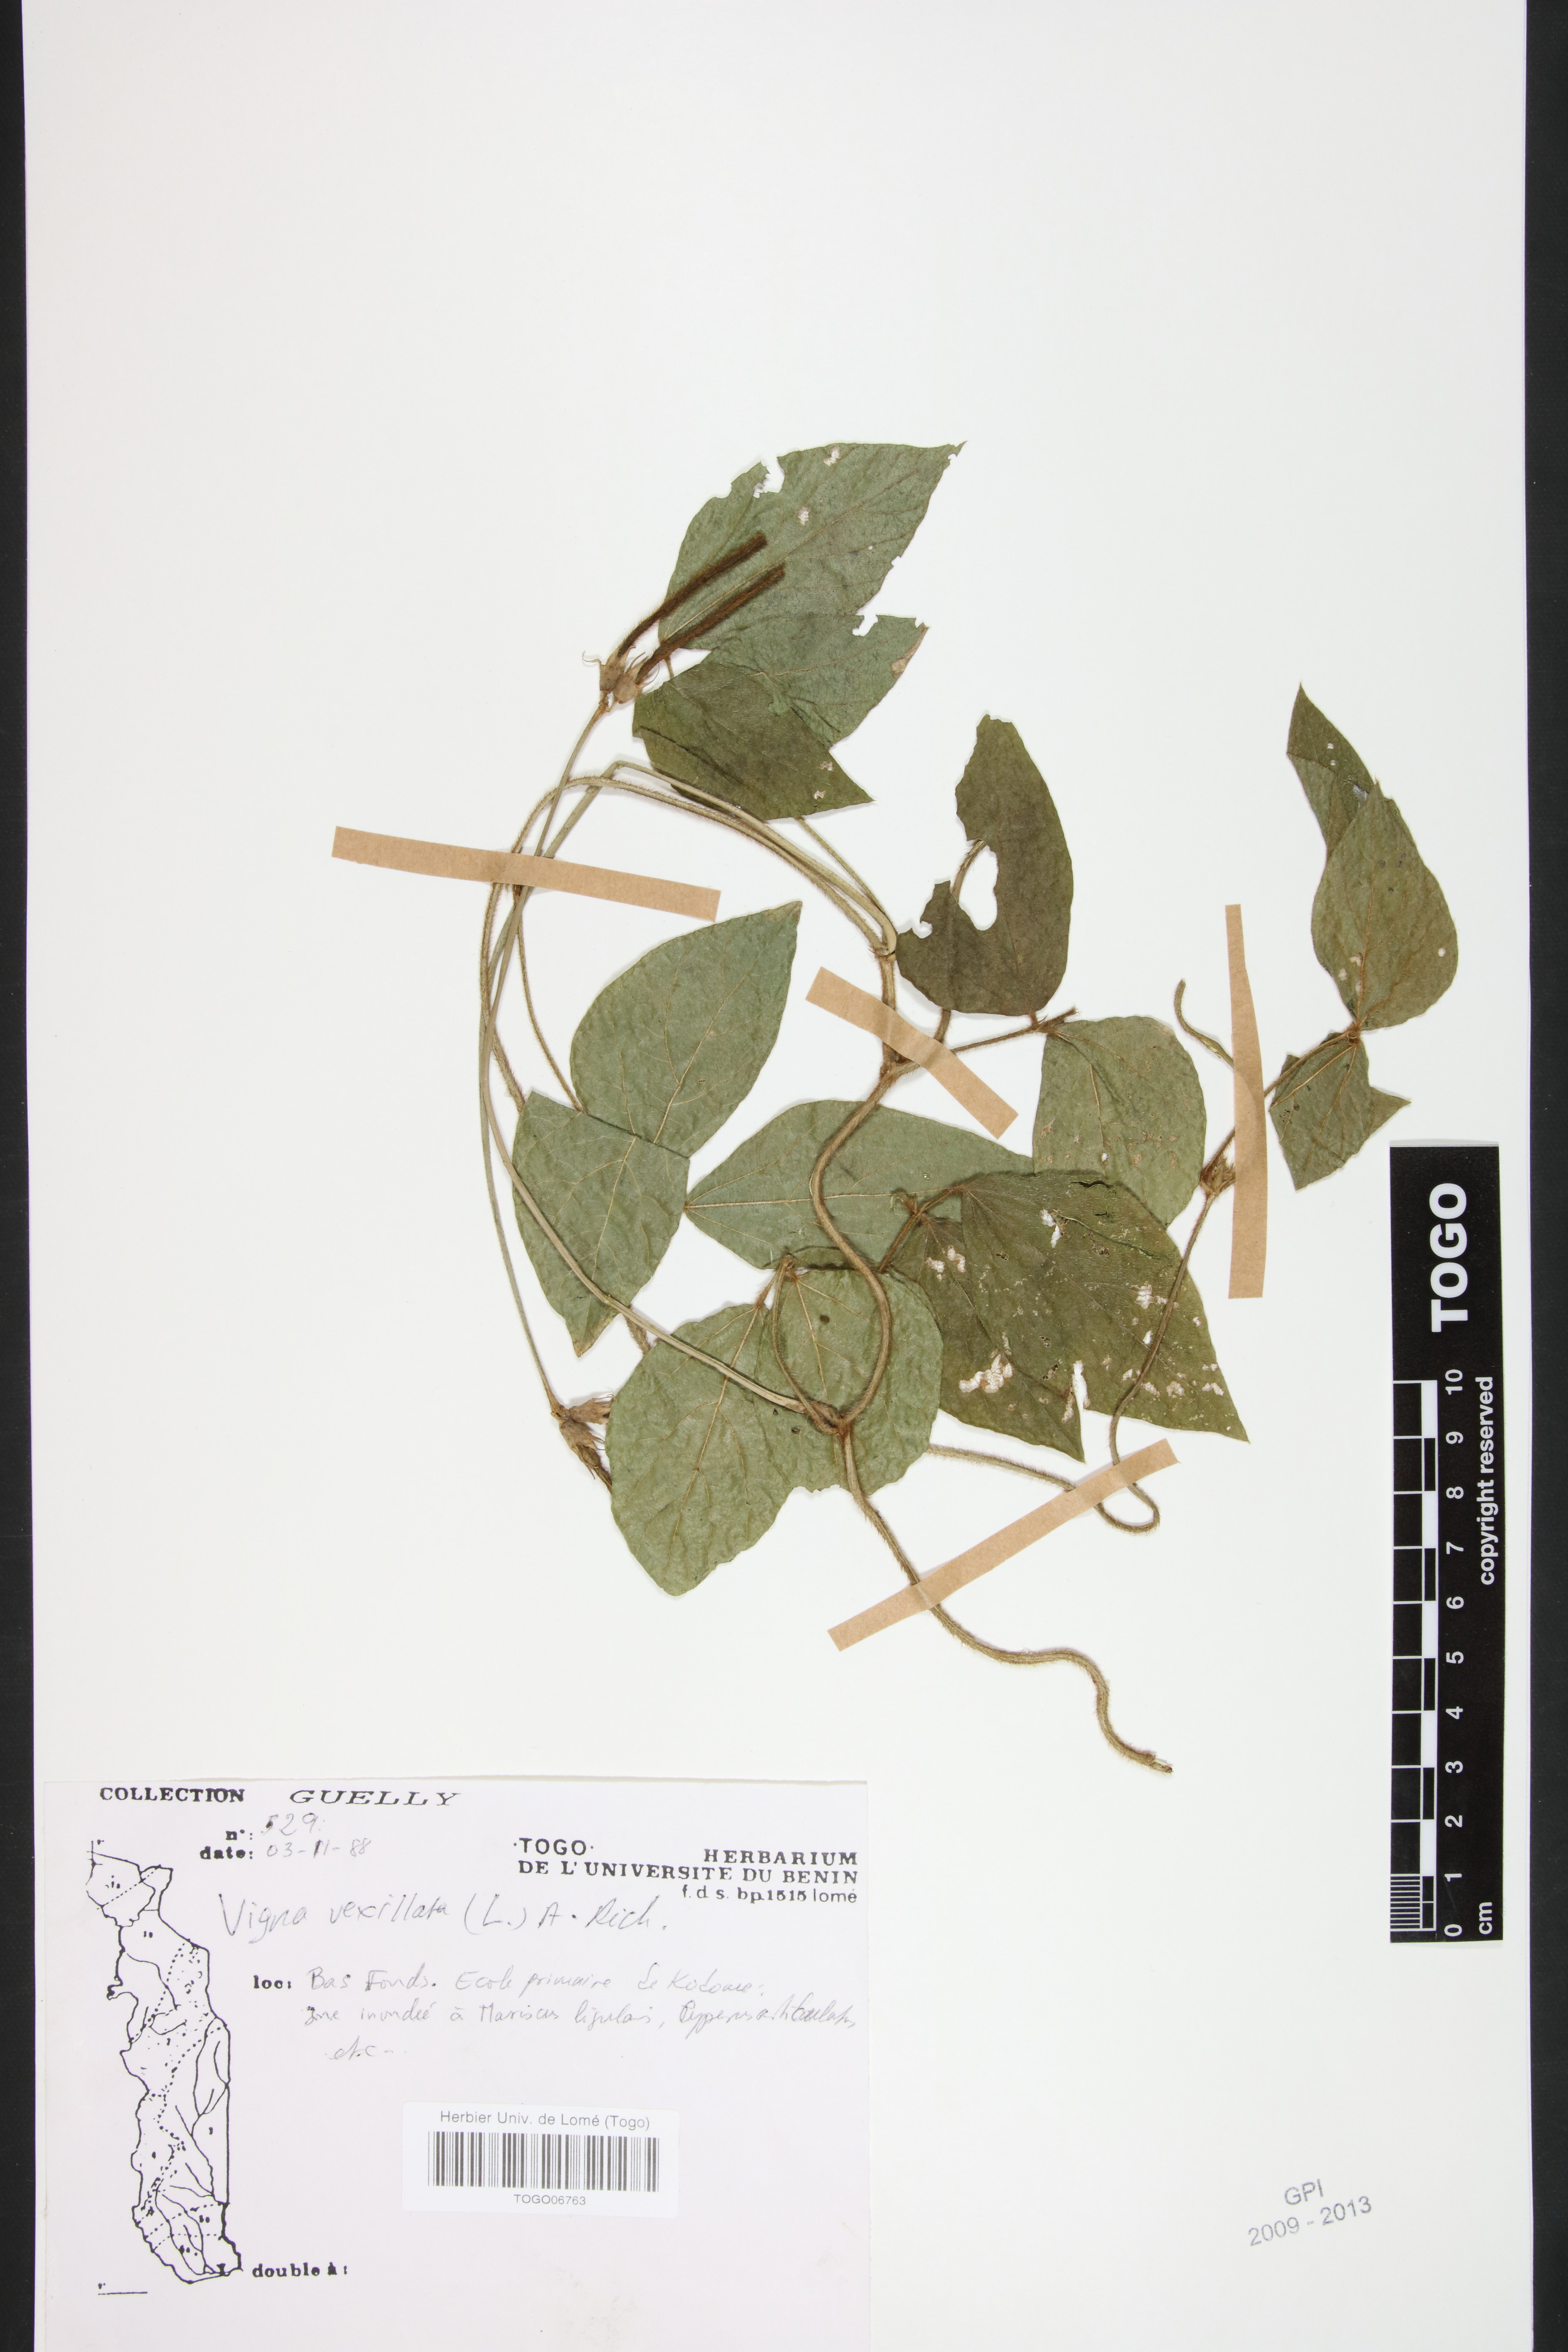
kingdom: Plantae
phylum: Tracheophyta
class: Magnoliopsida
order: Fabales
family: Fabaceae
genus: Vigna
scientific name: Vigna vexillata
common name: Zombi pea
